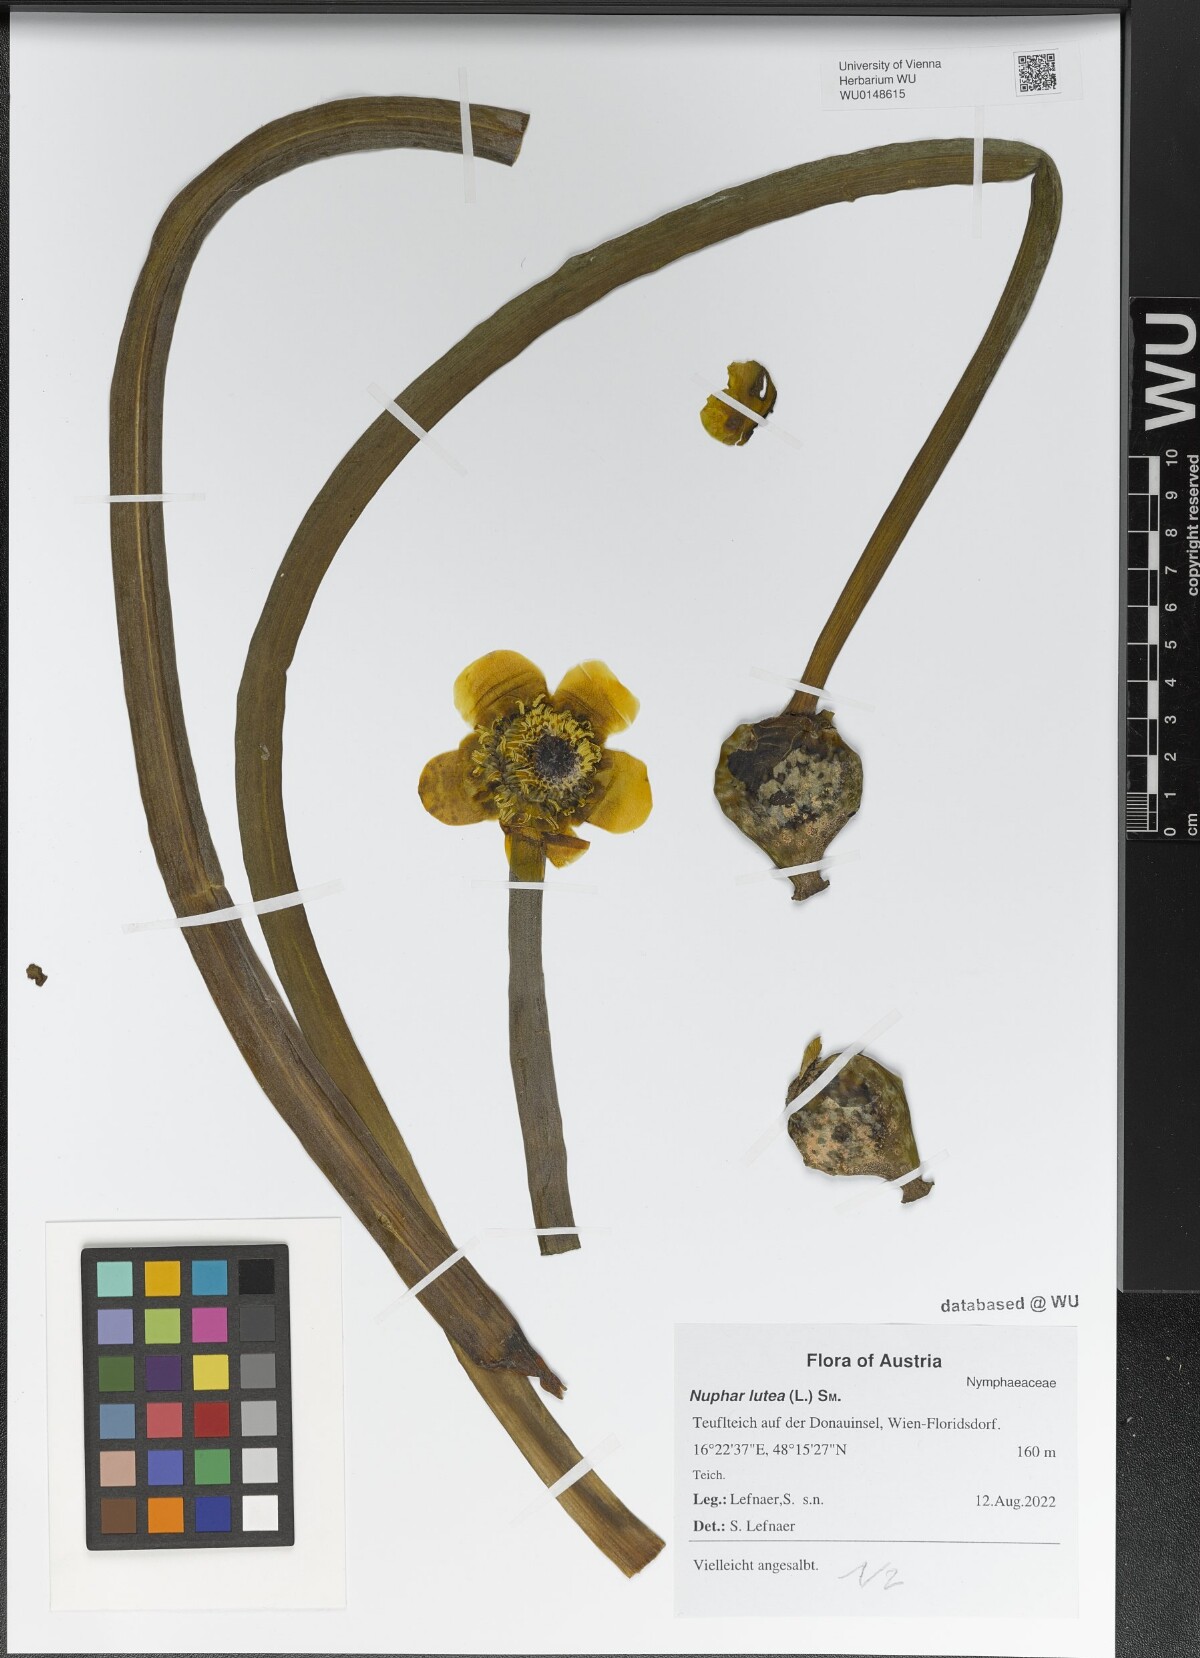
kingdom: Plantae
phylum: Tracheophyta
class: Magnoliopsida
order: Nymphaeales
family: Nymphaeaceae
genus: Nuphar
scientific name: Nuphar lutea
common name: Yellow water-lily
